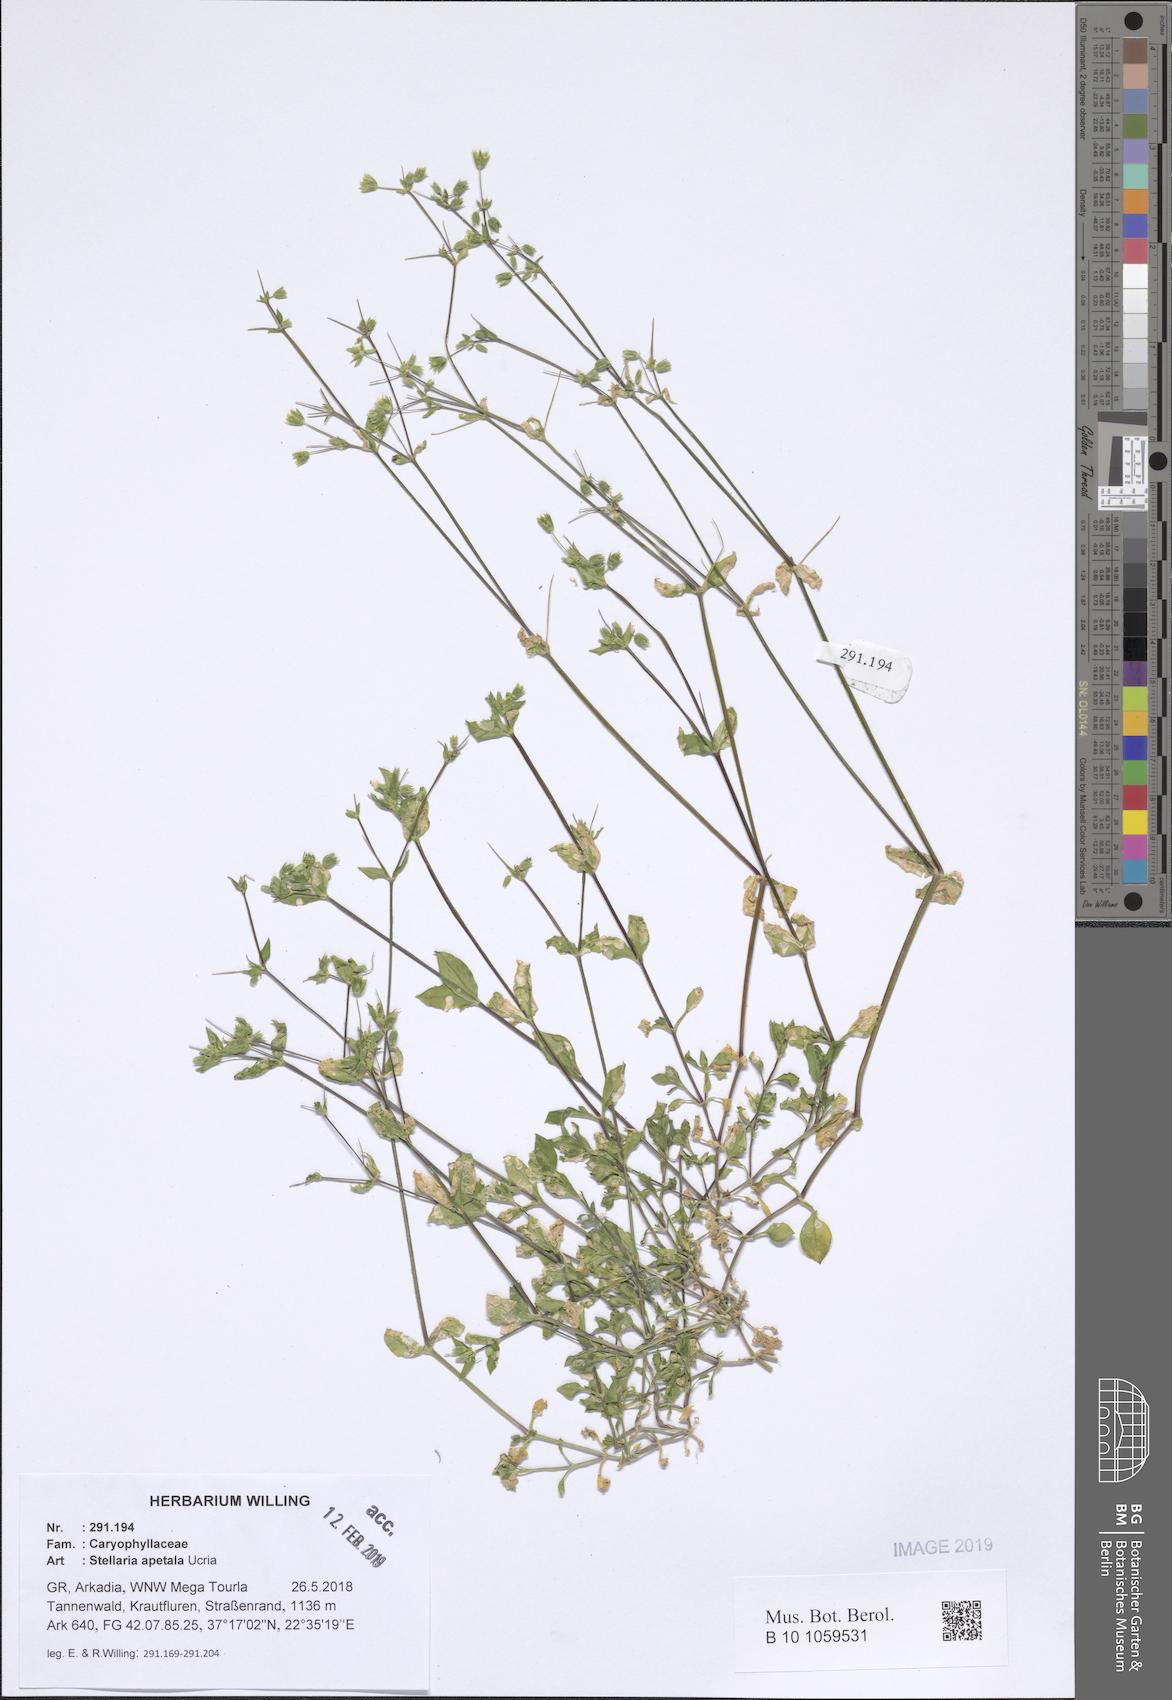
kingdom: Plantae
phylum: Tracheophyta
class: Magnoliopsida
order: Caryophyllales
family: Caryophyllaceae
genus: Stellaria
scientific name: Stellaria apetala
